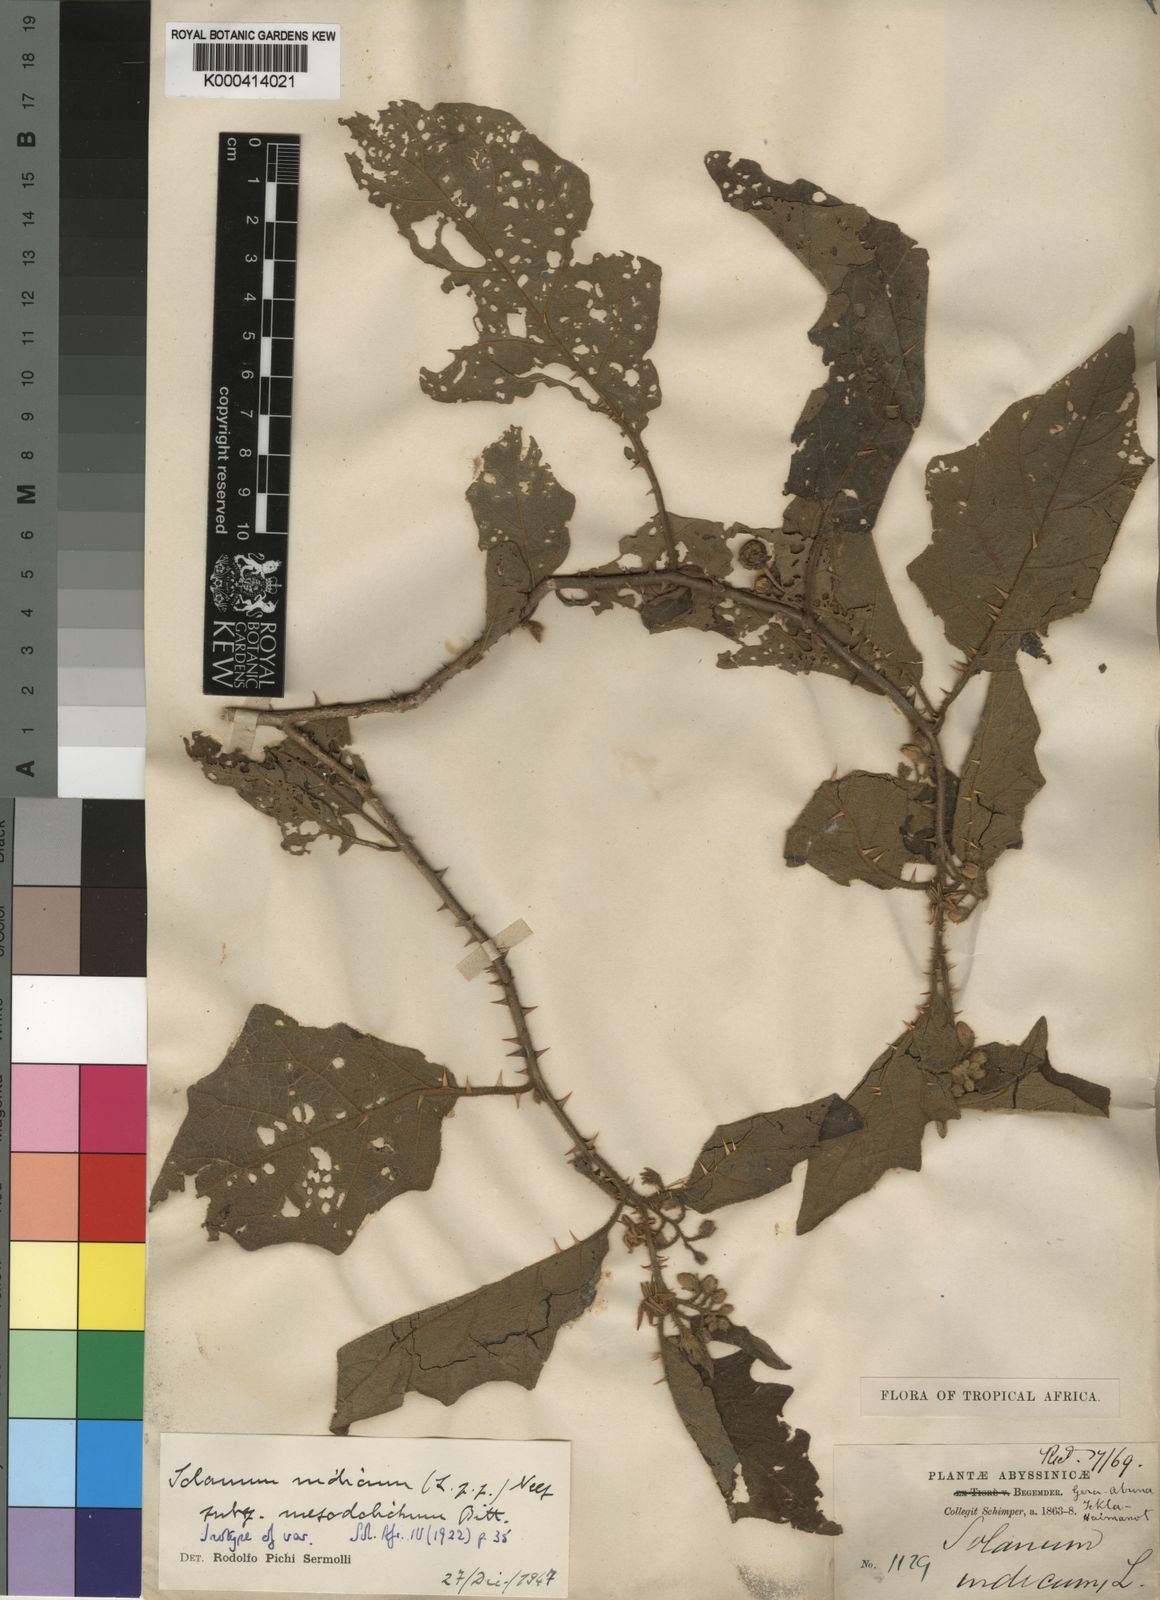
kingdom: Plantae
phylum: Tracheophyta
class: Magnoliopsida
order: Solanales
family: Solanaceae
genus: Solanum
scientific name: Solanum anguivi
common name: Forest bitterberry
